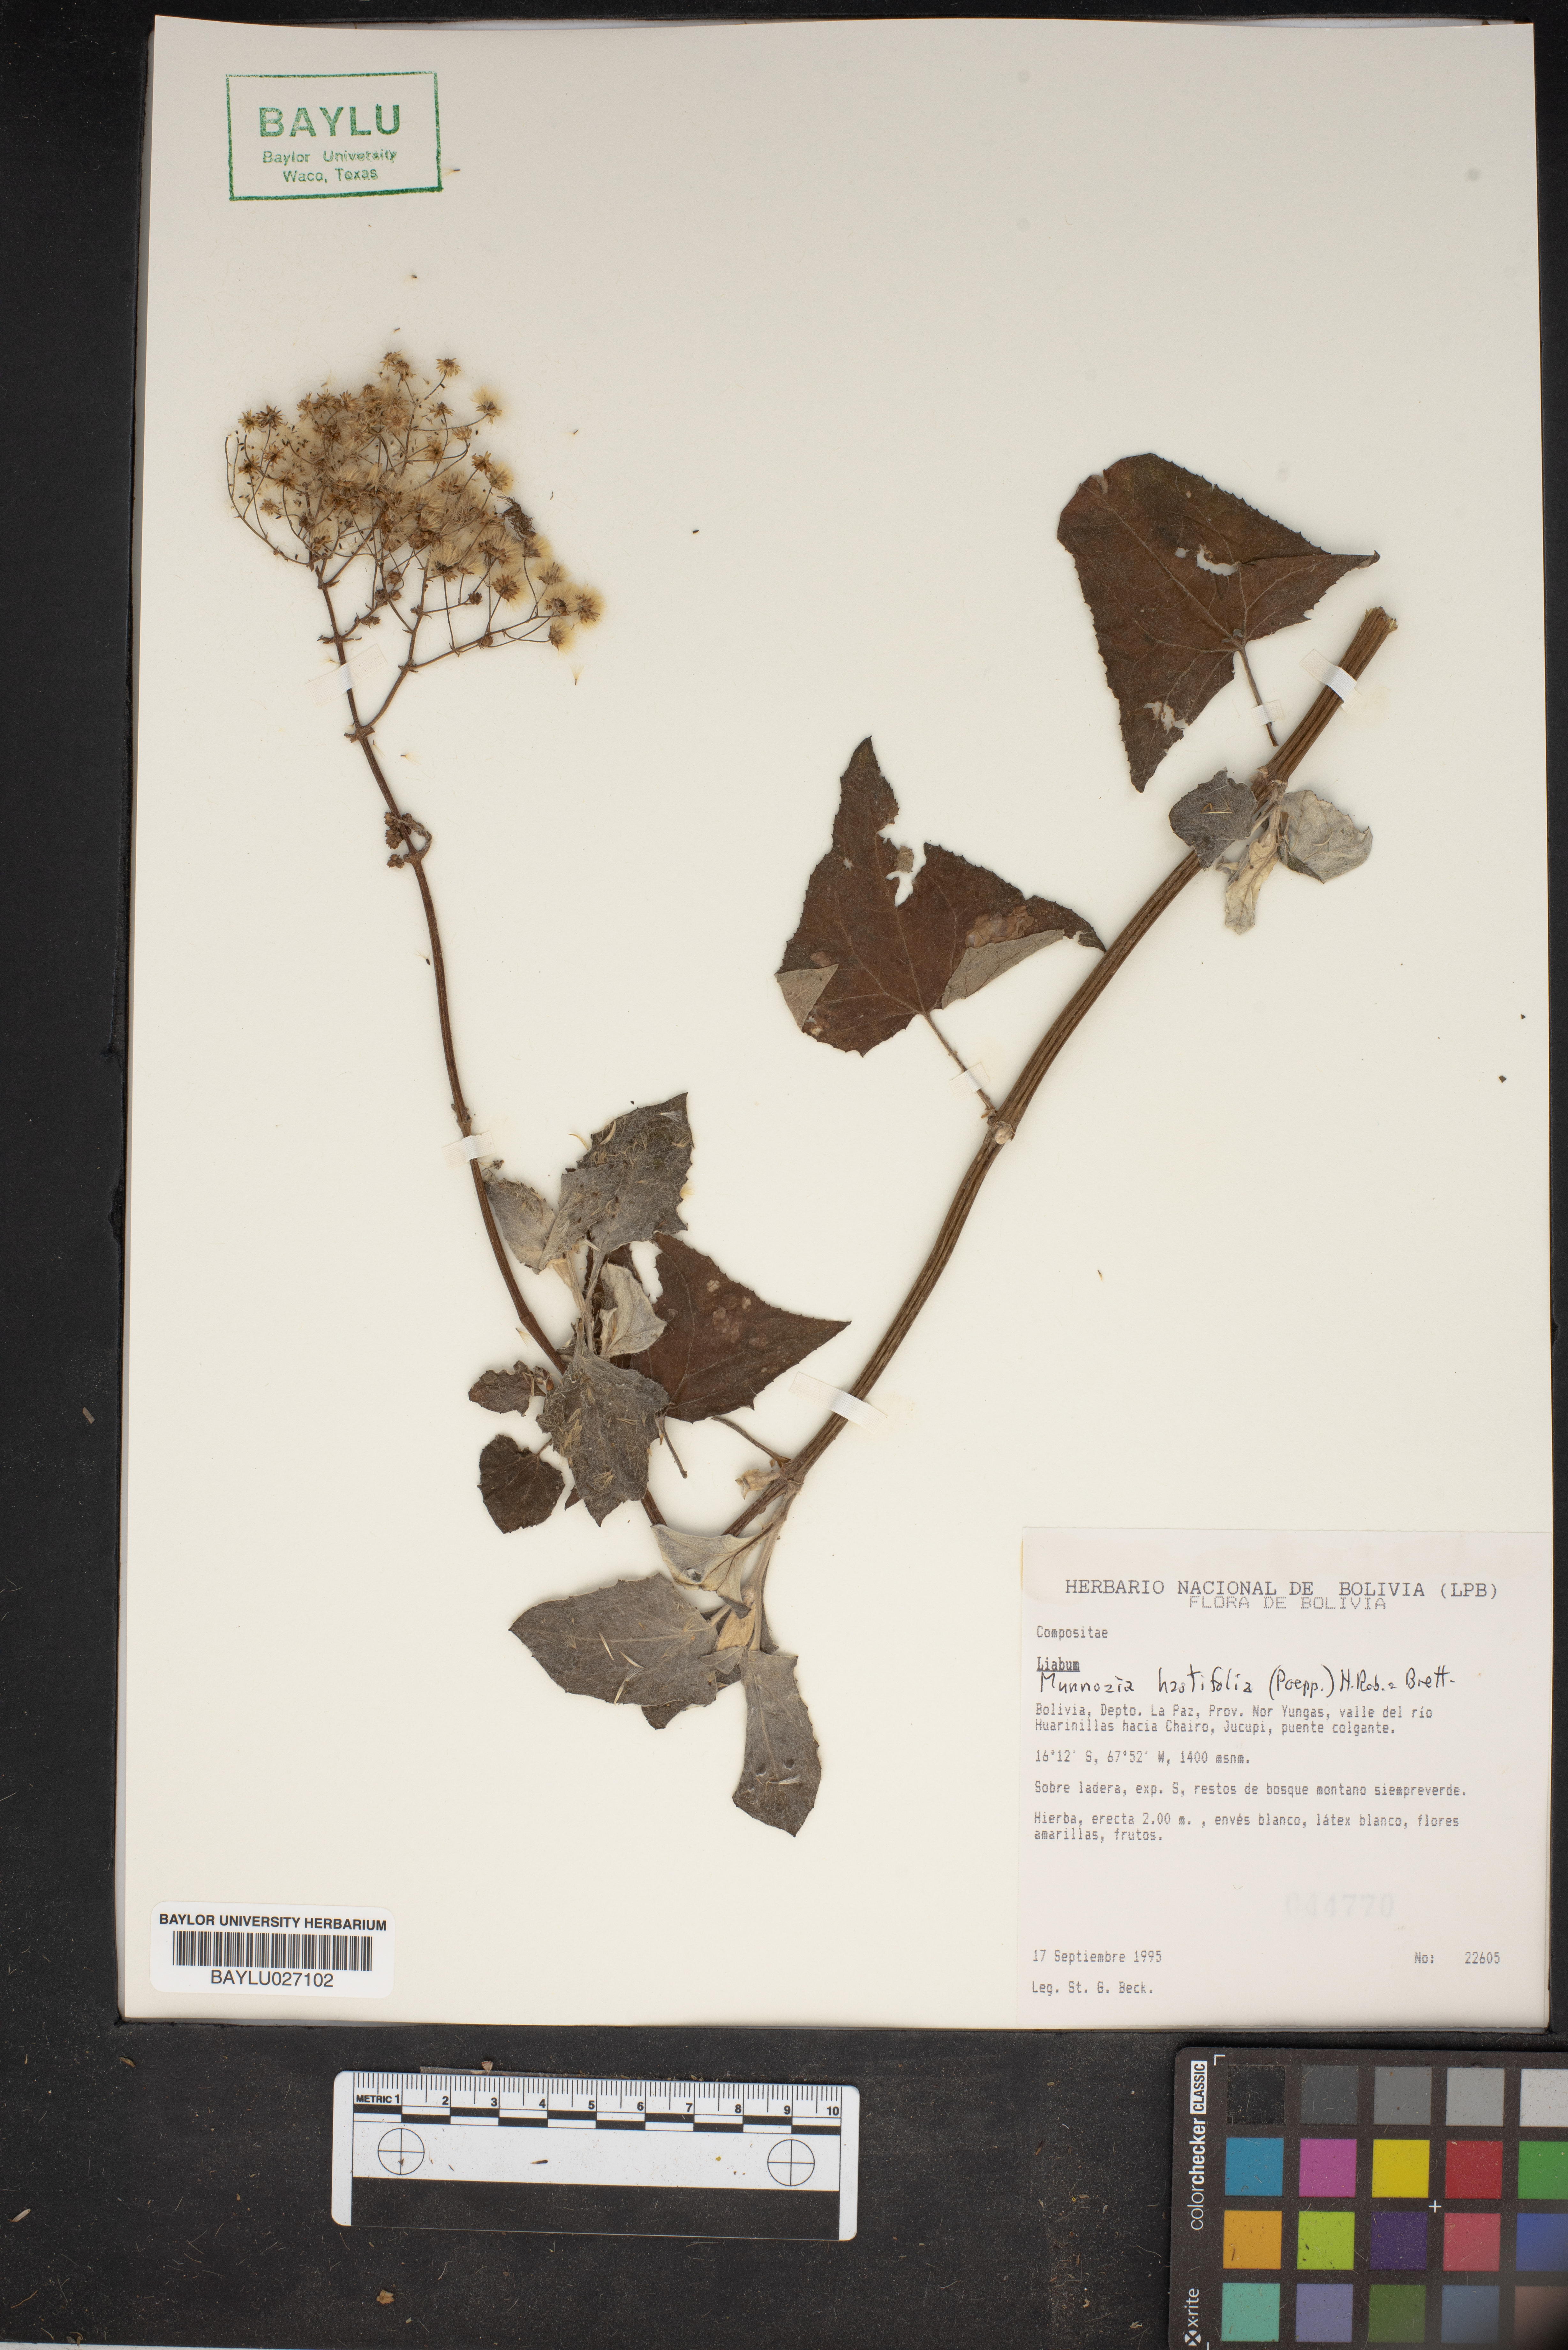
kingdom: Plantae
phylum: Tracheophyta
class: Magnoliopsida
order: Asterales
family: Asteraceae
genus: Munnozia
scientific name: Munnozia hastifolia
